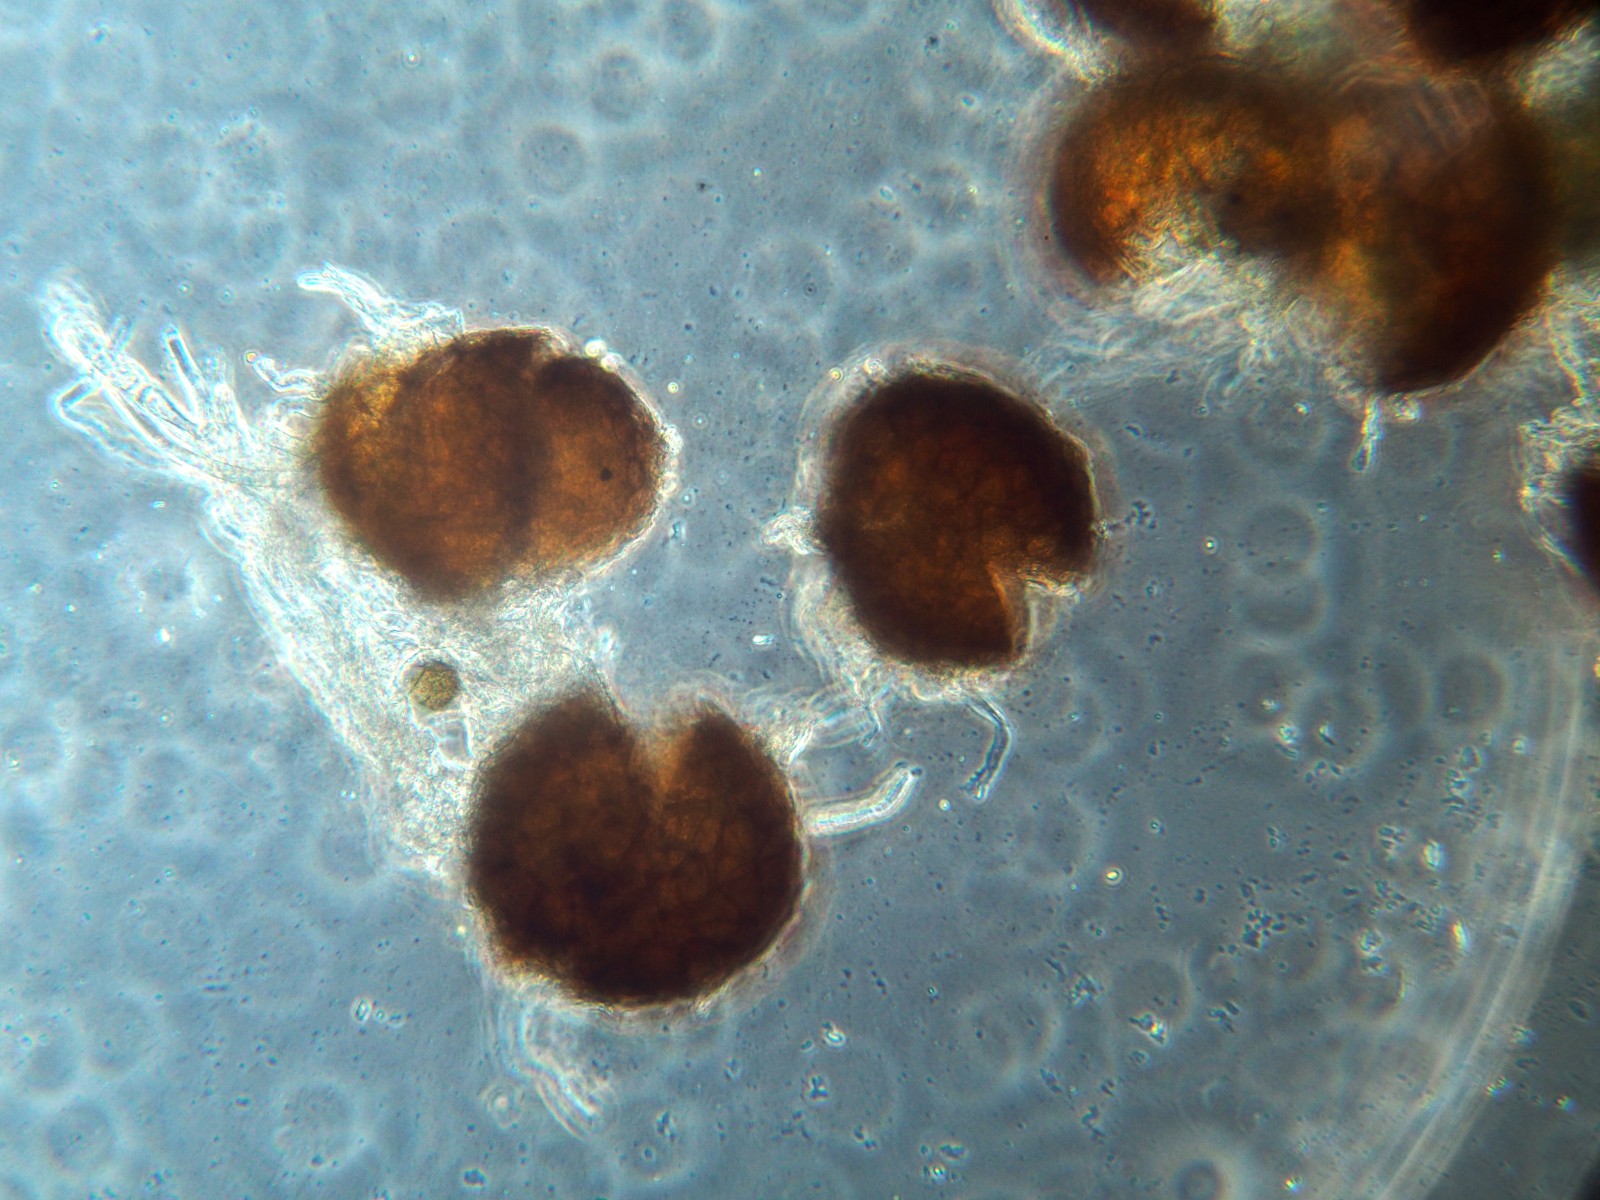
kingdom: Fungi
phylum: Ascomycota
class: Leotiomycetes
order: Helotiales
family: Erysiphaceae
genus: Golovinomyces
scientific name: Golovinomyces
